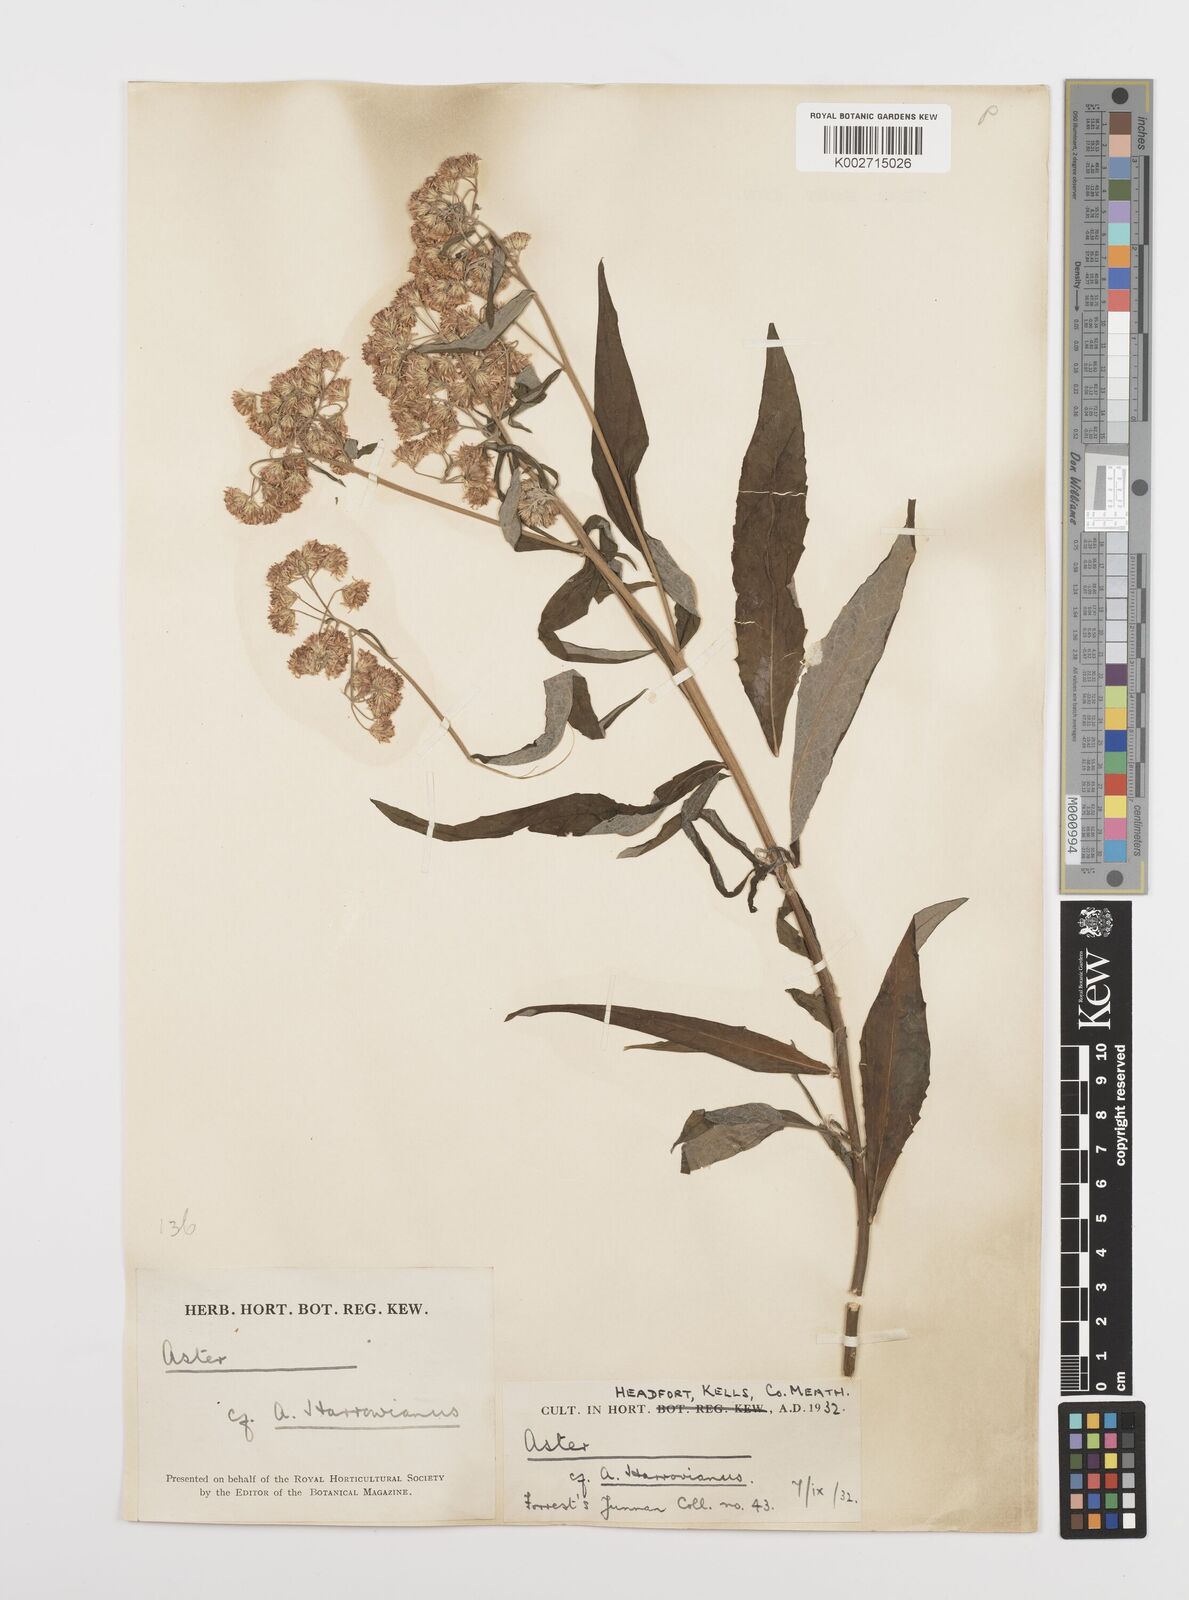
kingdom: Plantae
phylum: Tracheophyta
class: Magnoliopsida
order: Asterales
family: Asteraceae
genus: Sinosidus
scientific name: Sinosidus albescens
